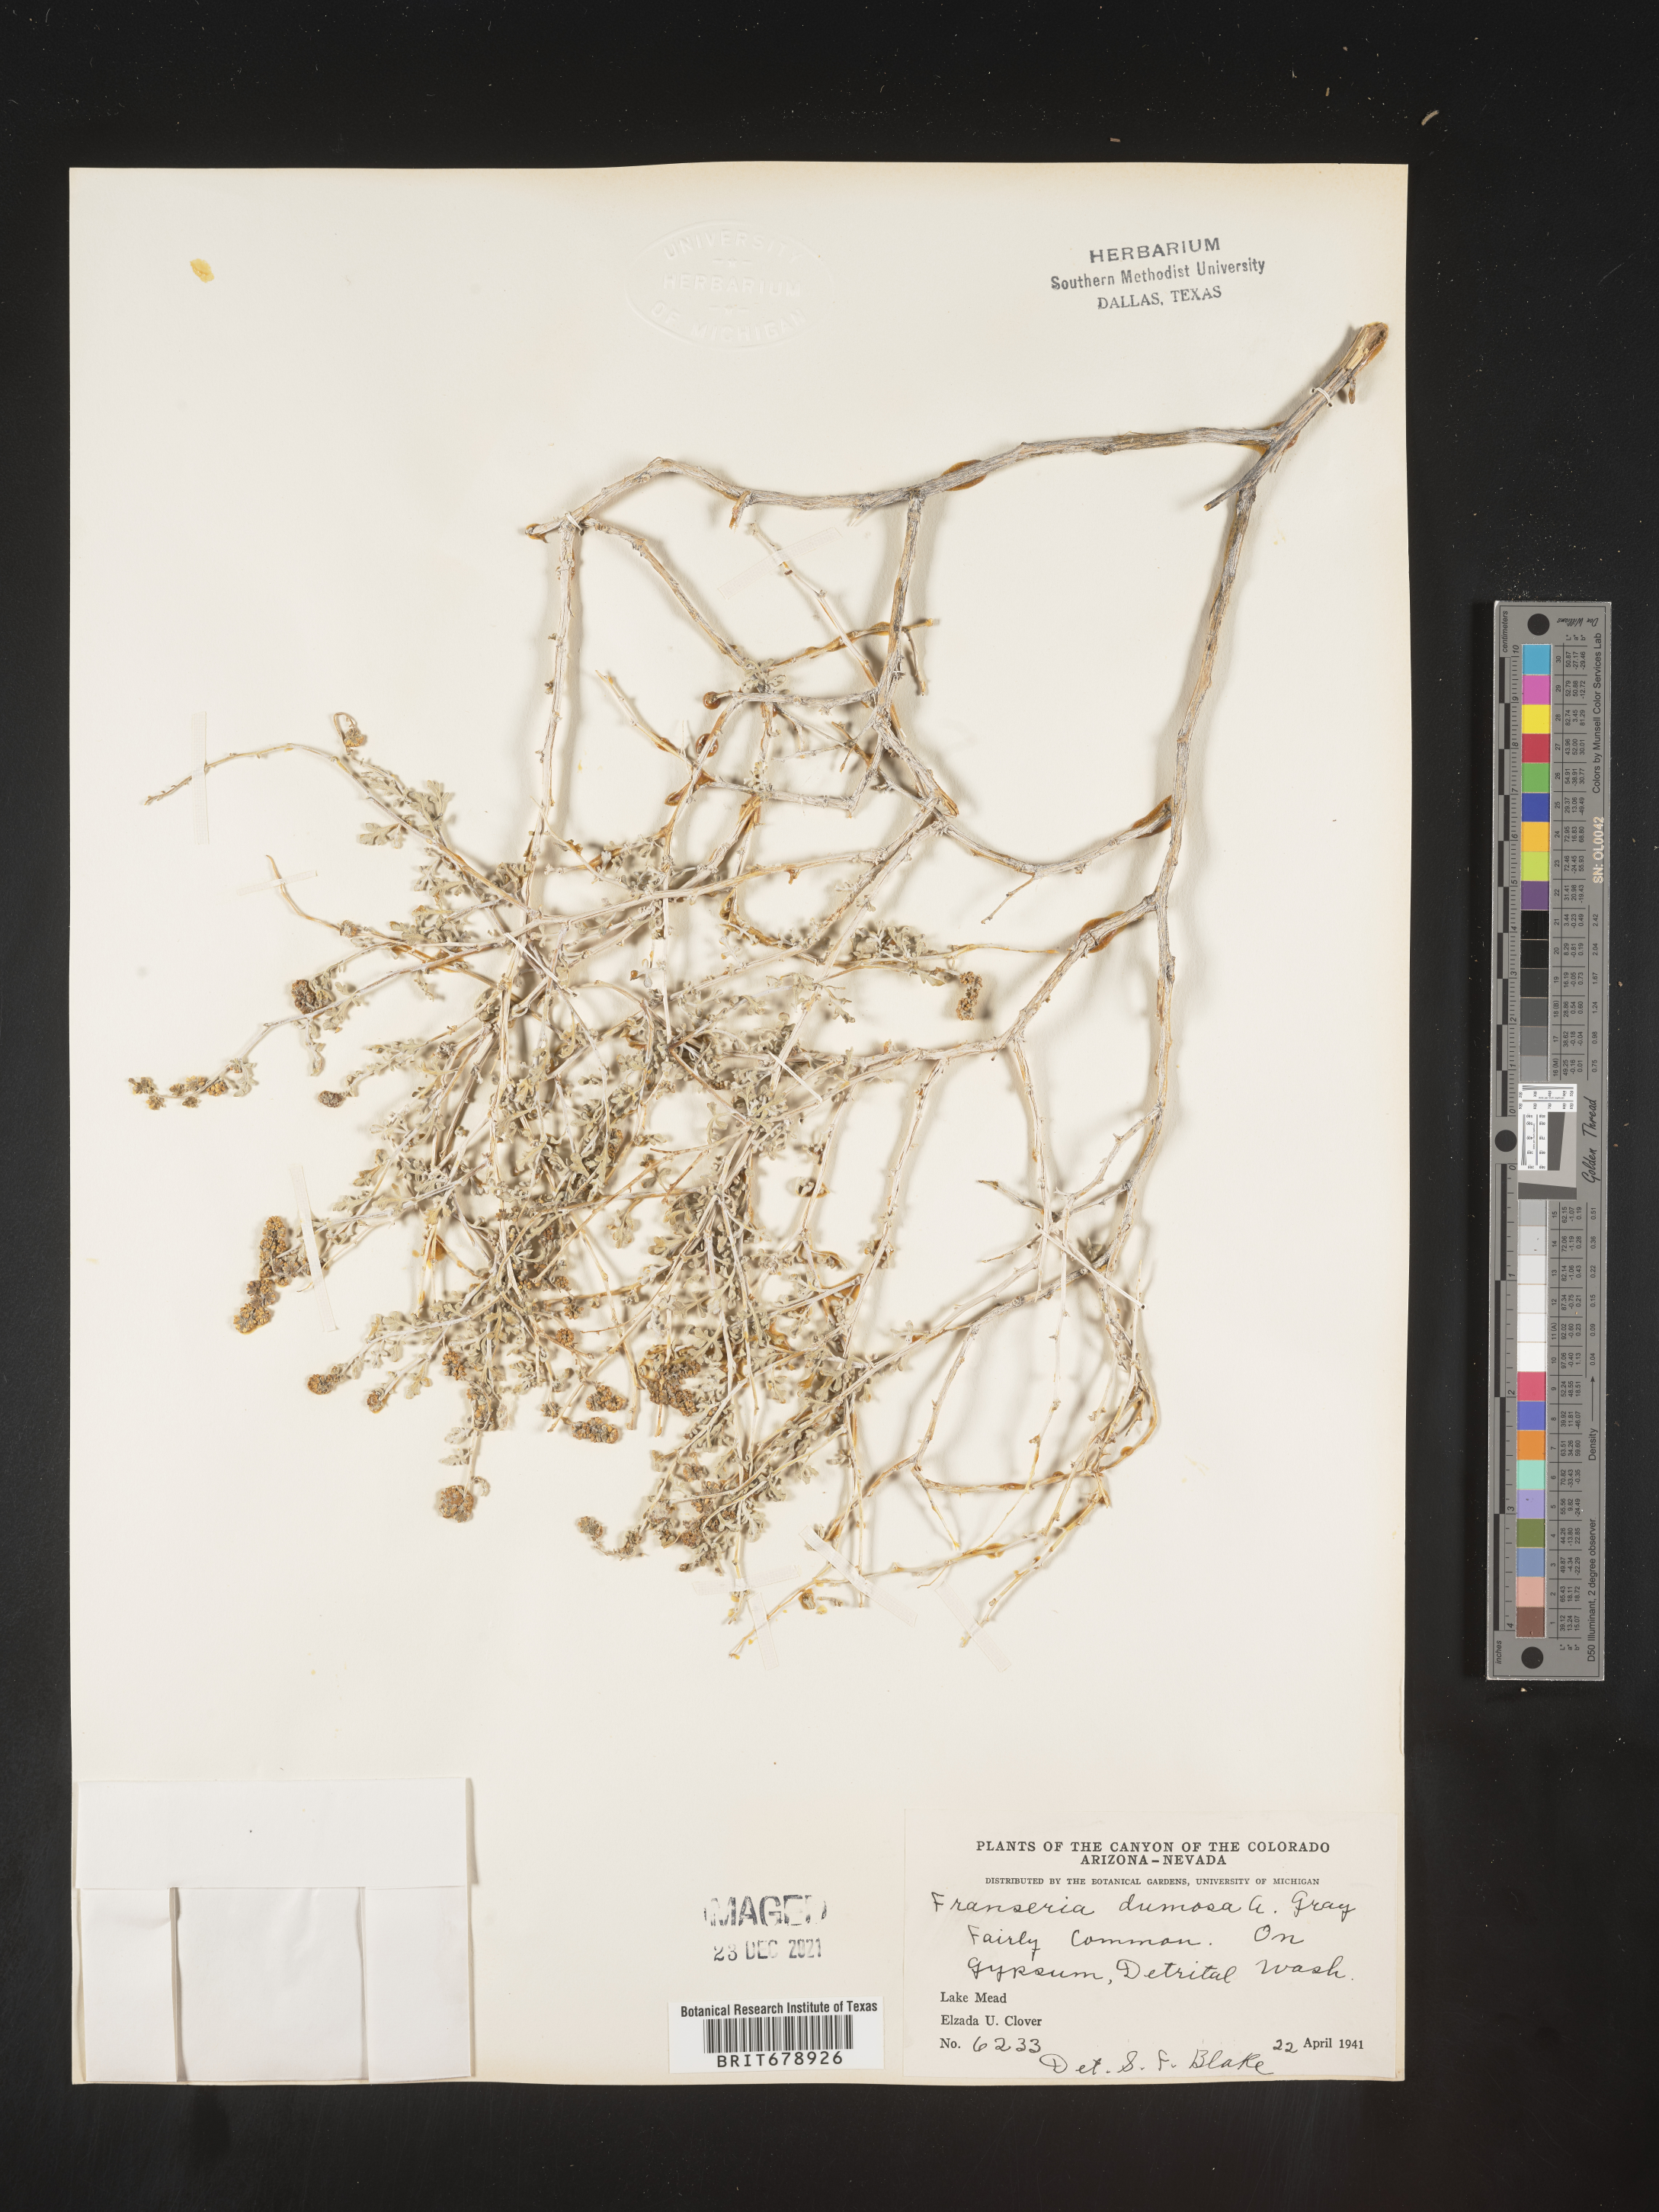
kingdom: Plantae
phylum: Tracheophyta
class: Magnoliopsida
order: Asterales
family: Asteraceae
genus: Ambrosia
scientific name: Ambrosia dumosa
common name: Bur-sage
